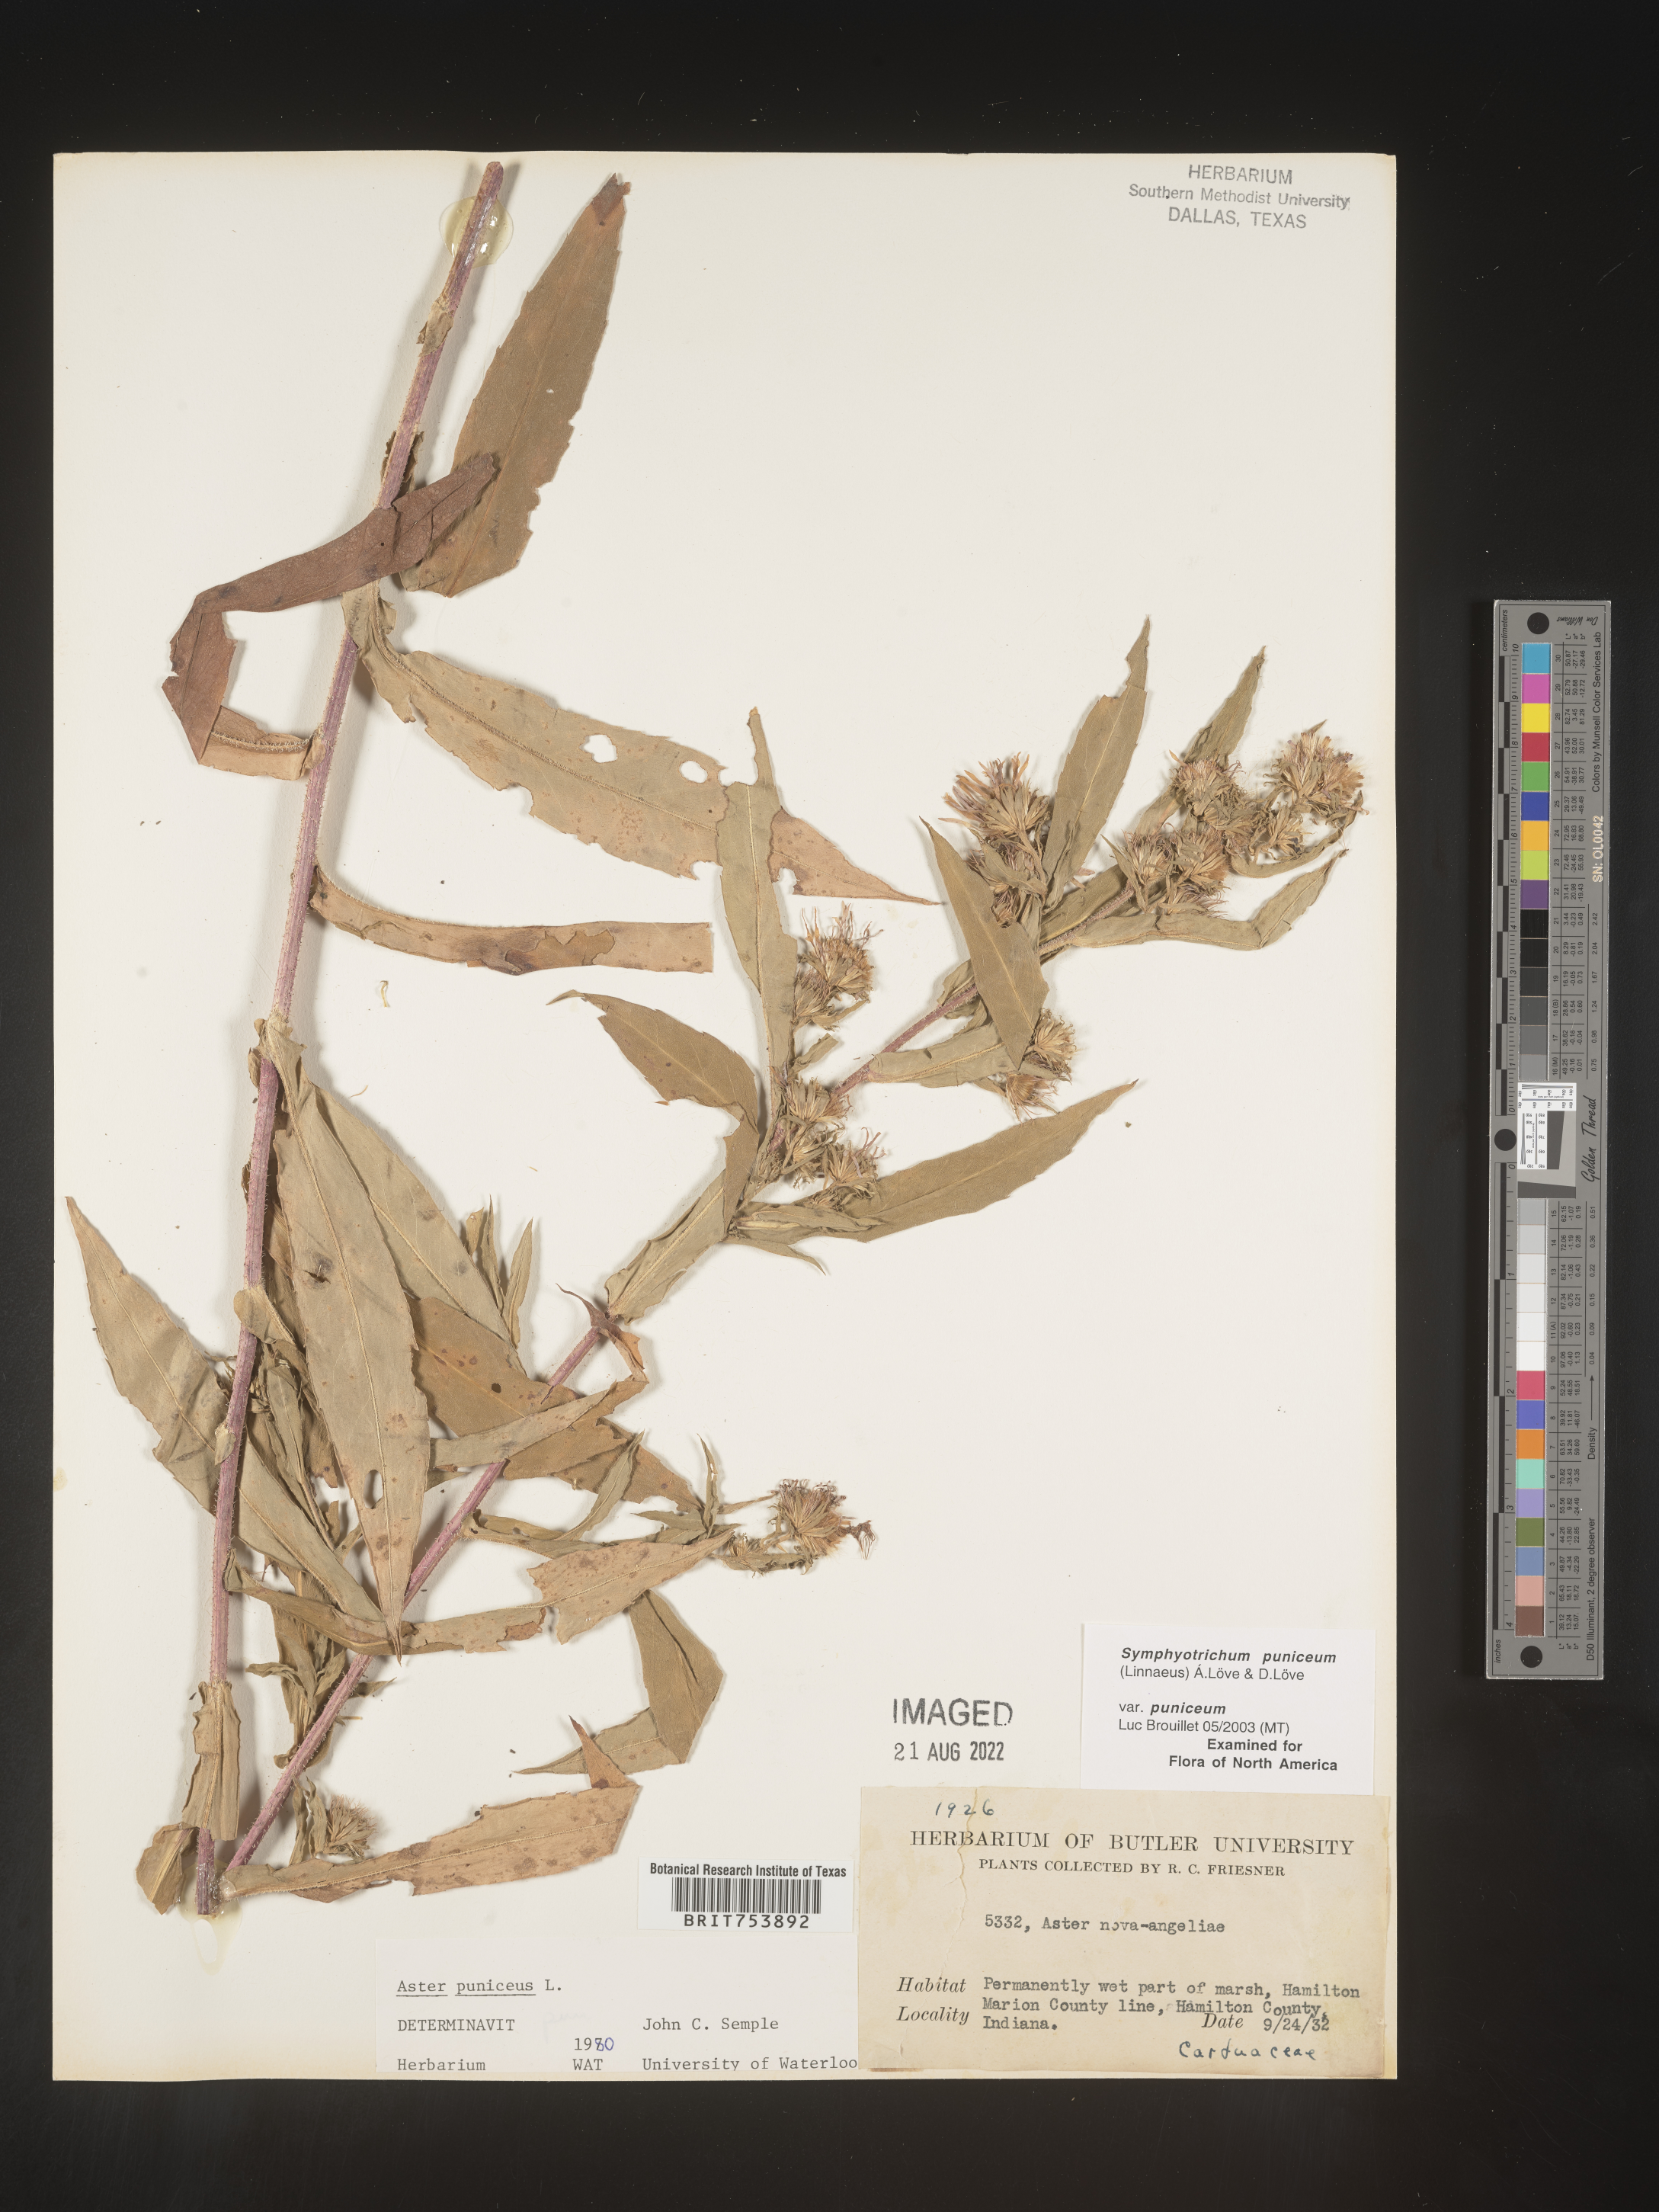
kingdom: Plantae
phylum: Tracheophyta
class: Magnoliopsida
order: Asterales
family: Asteraceae
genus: Symphyotrichum
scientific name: Symphyotrichum puniceum
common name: Bog aster
